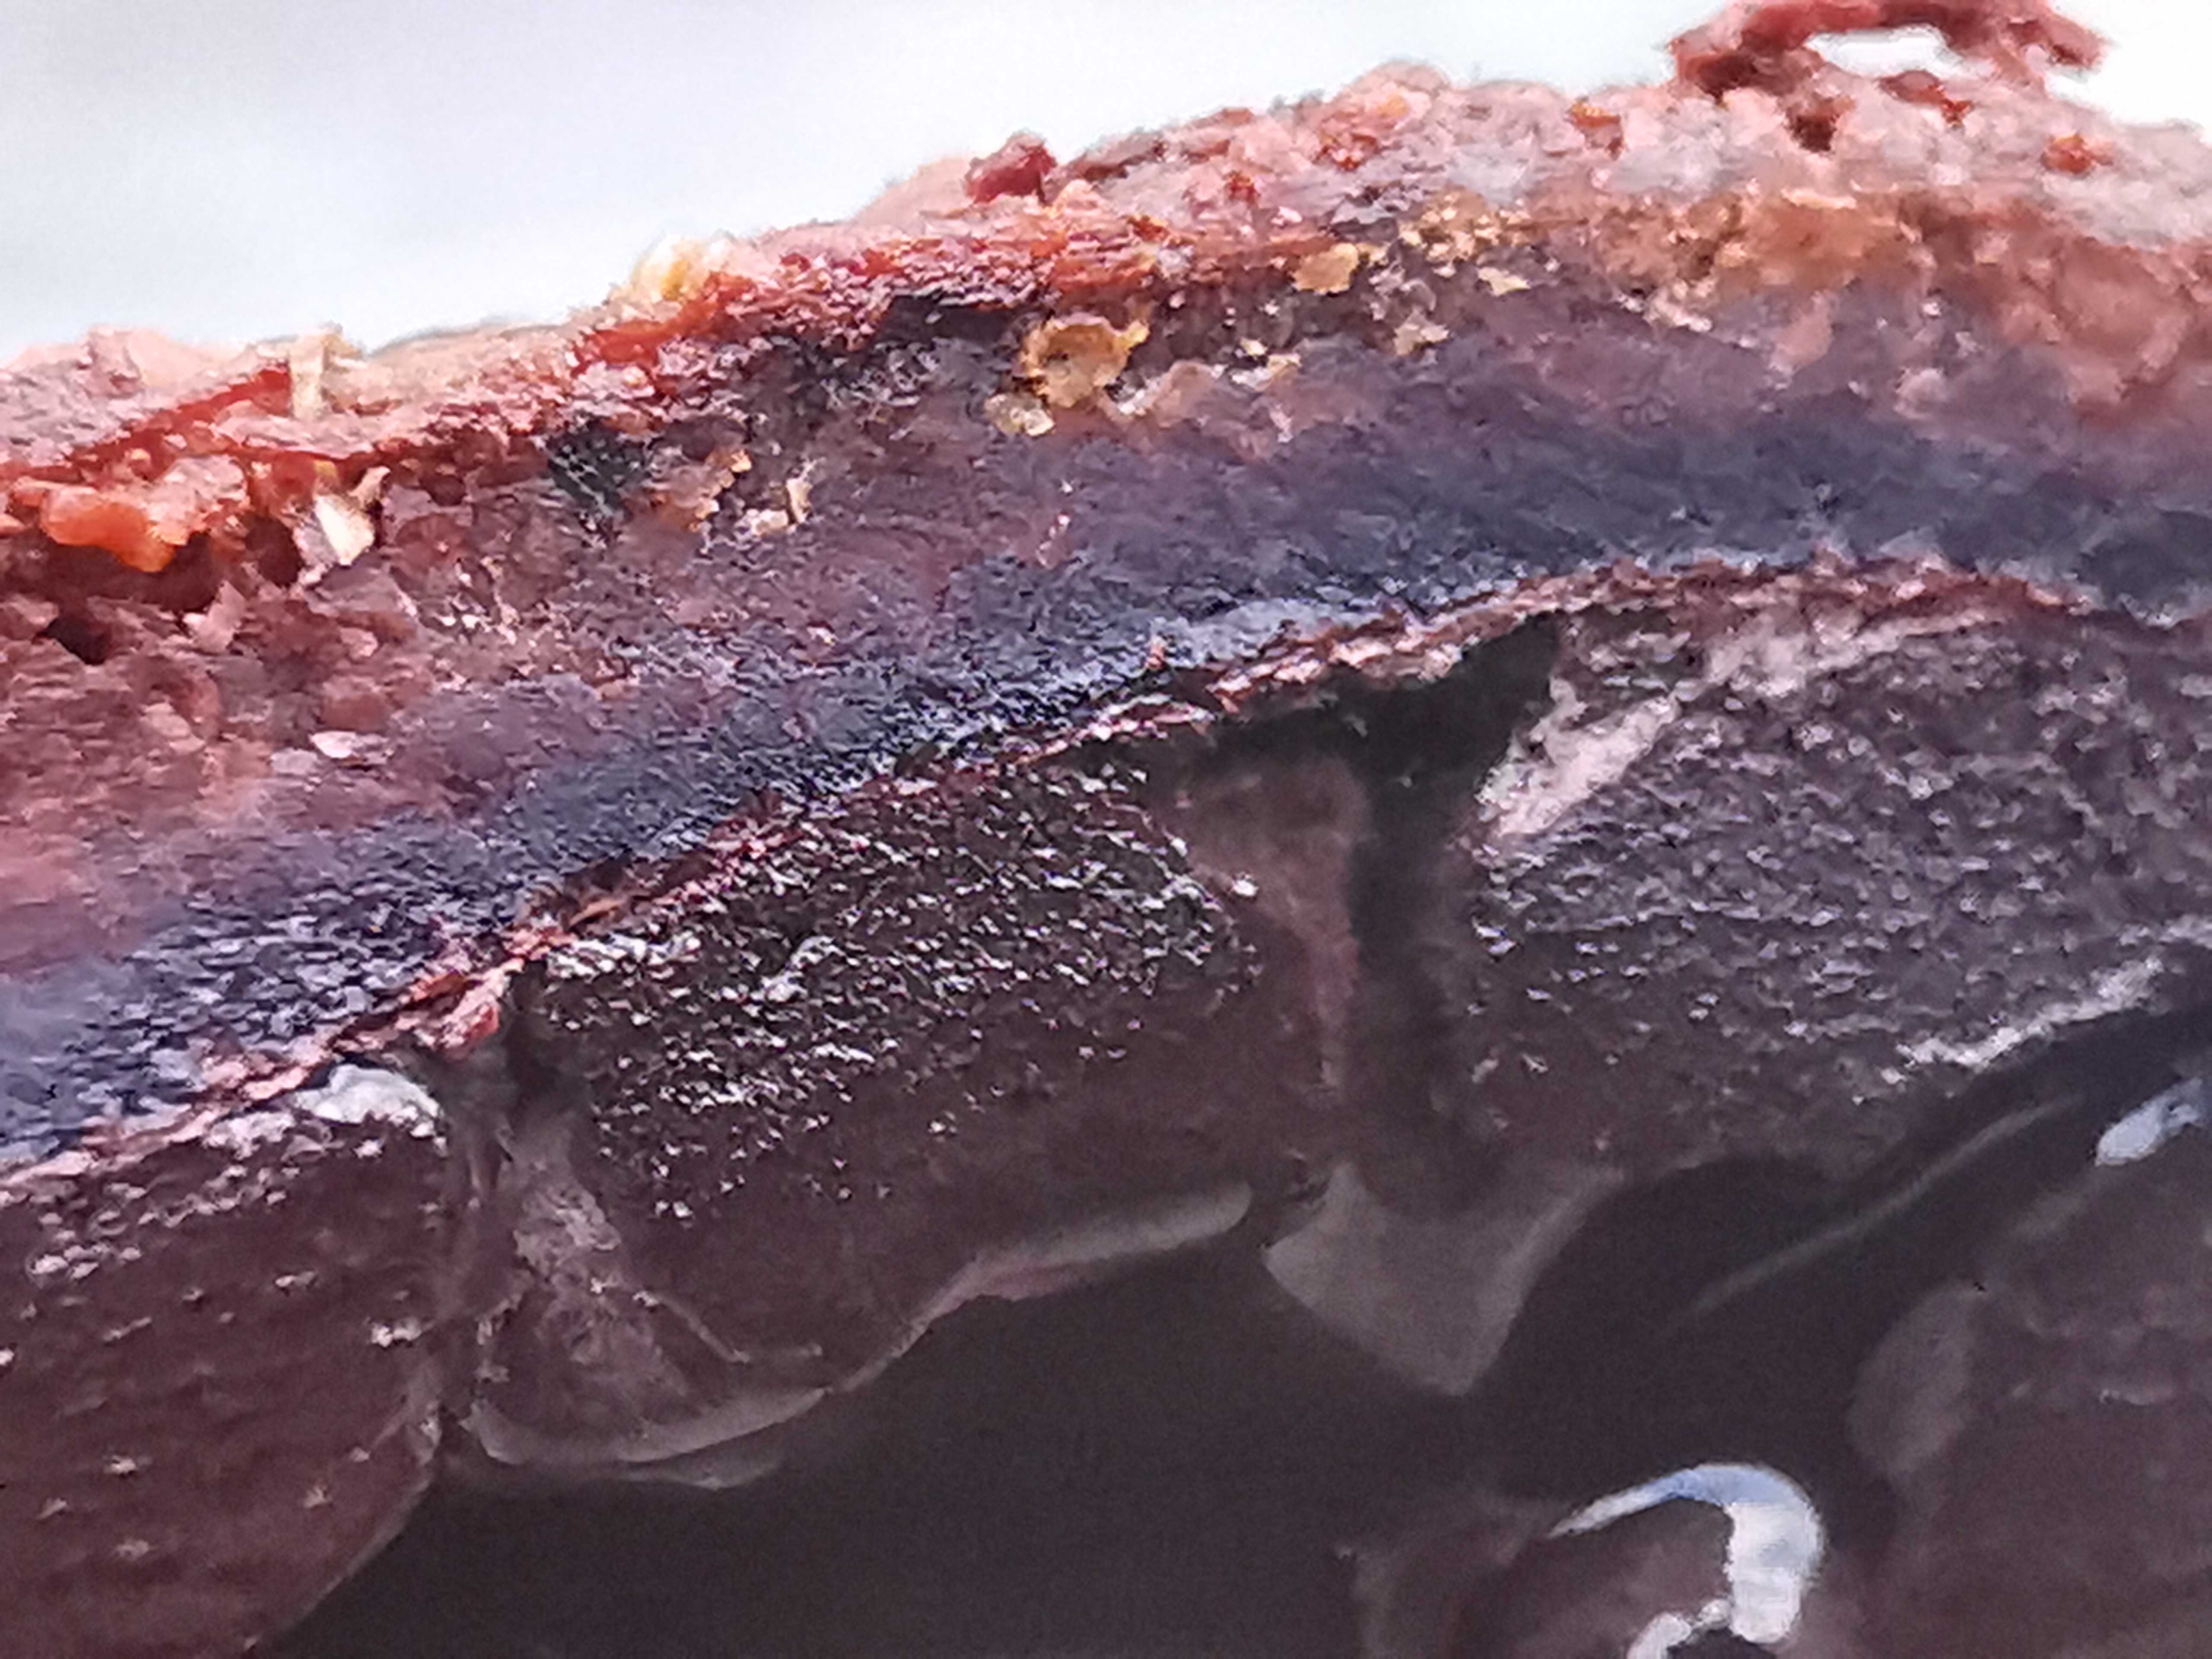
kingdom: Fungi
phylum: Ascomycota
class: Eurotiomycetes
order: Eurotiales
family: Elaphomycetaceae
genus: Elaphomyces
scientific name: Elaphomyces muricatus
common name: vortet hjortetrøffel
